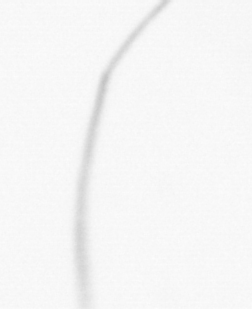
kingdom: Chromista
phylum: Ochrophyta
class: Bacillariophyceae
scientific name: Bacillariophyceae
